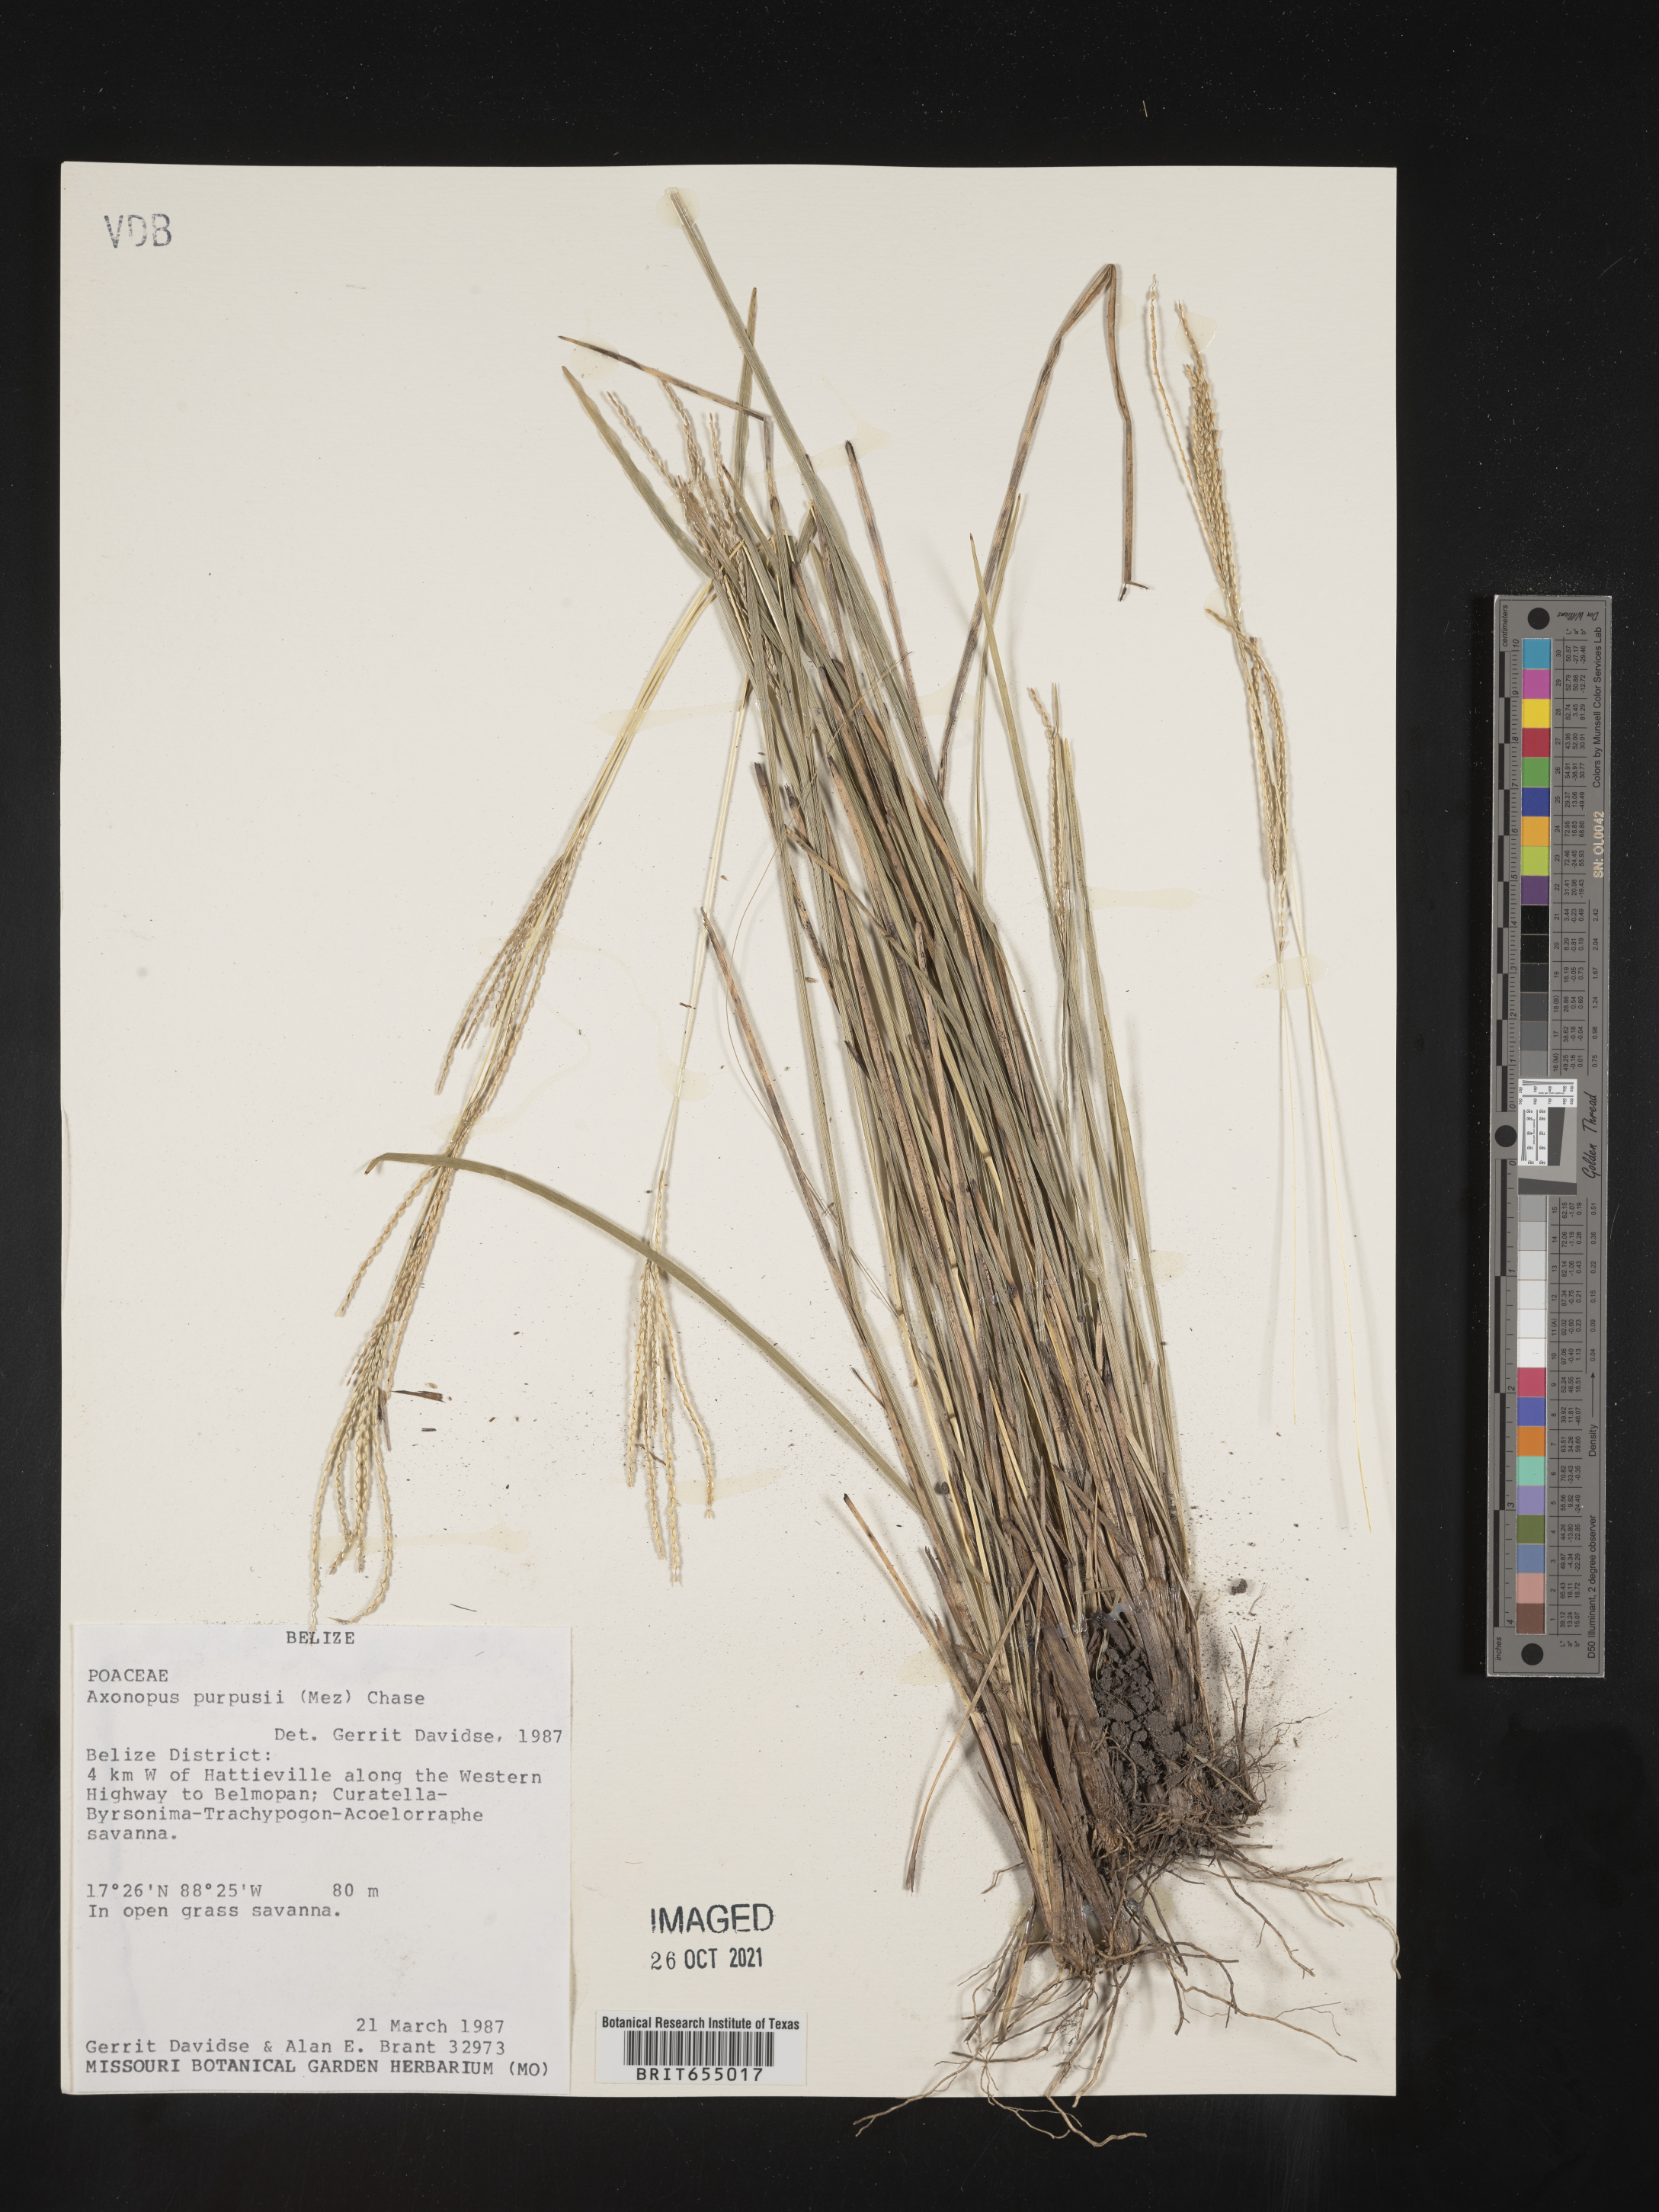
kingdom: Plantae
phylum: Tracheophyta
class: Liliopsida
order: Poales
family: Poaceae
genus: Axonopus
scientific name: Axonopus
